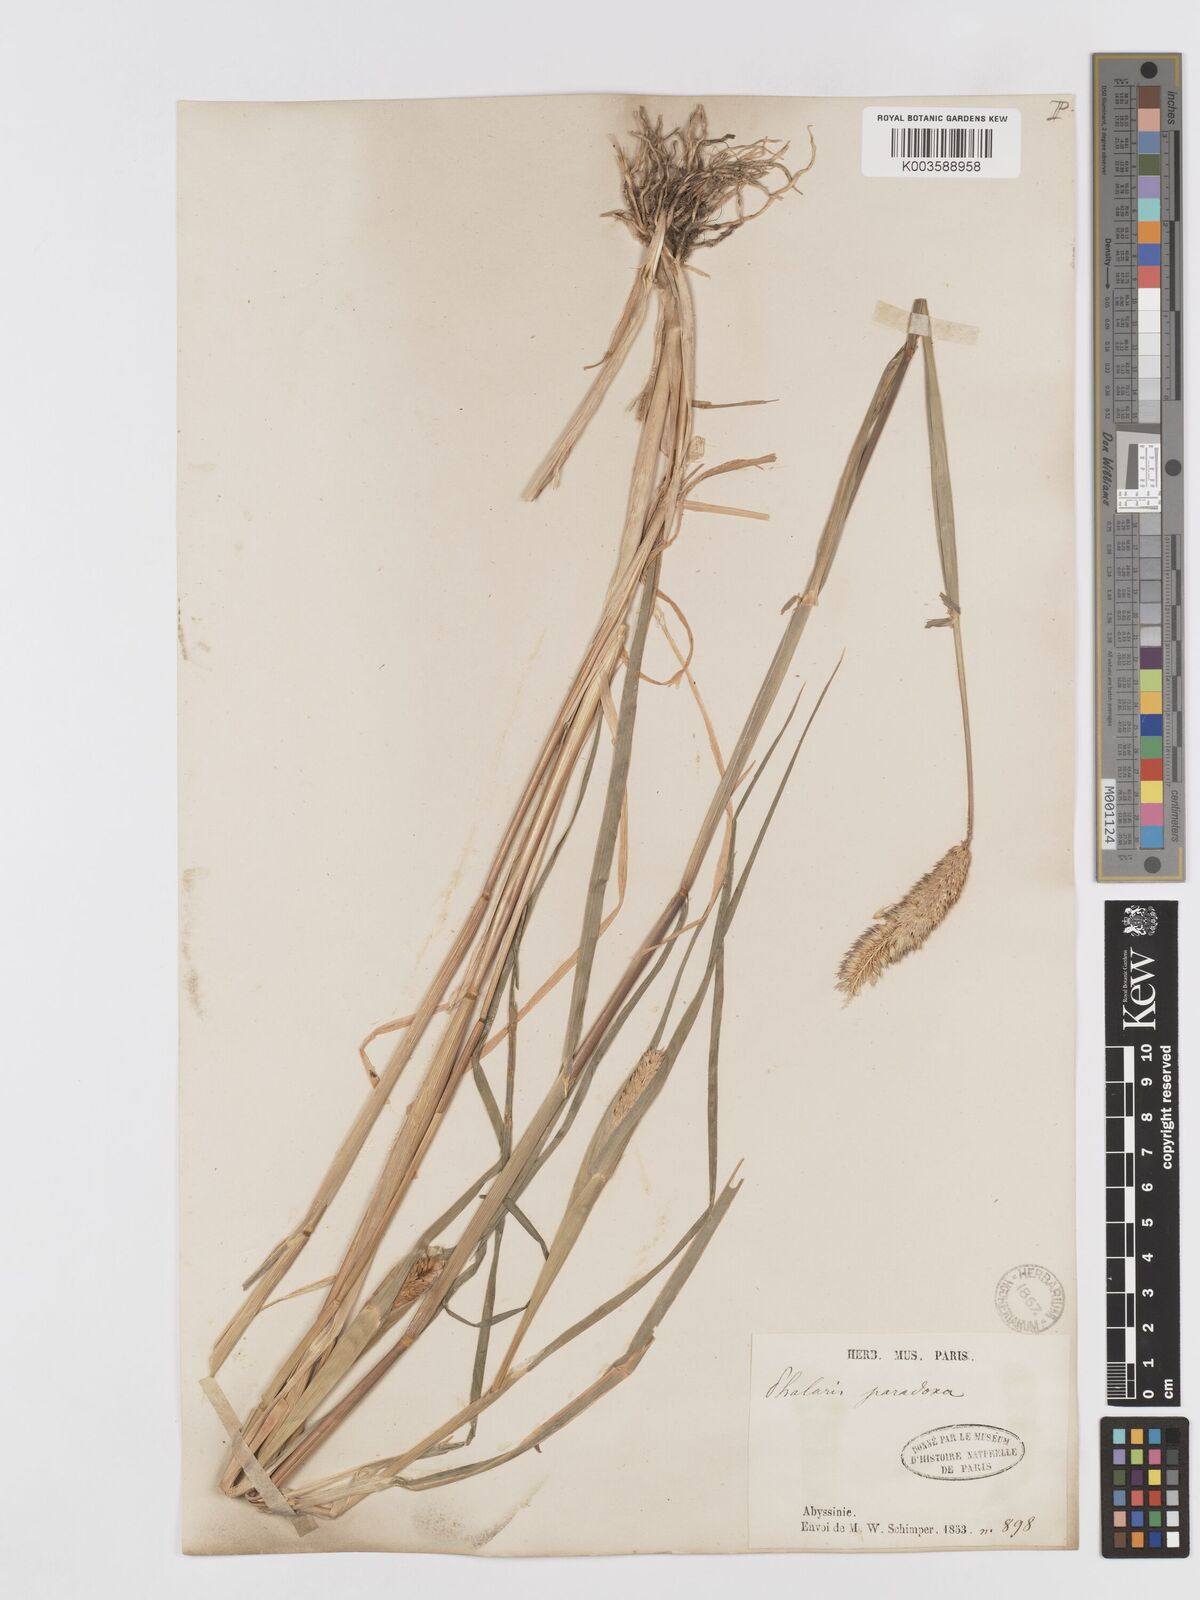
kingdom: Plantae
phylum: Tracheophyta
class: Liliopsida
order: Poales
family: Poaceae
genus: Phalaris
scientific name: Phalaris paradoxa
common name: Awned canary-grass
